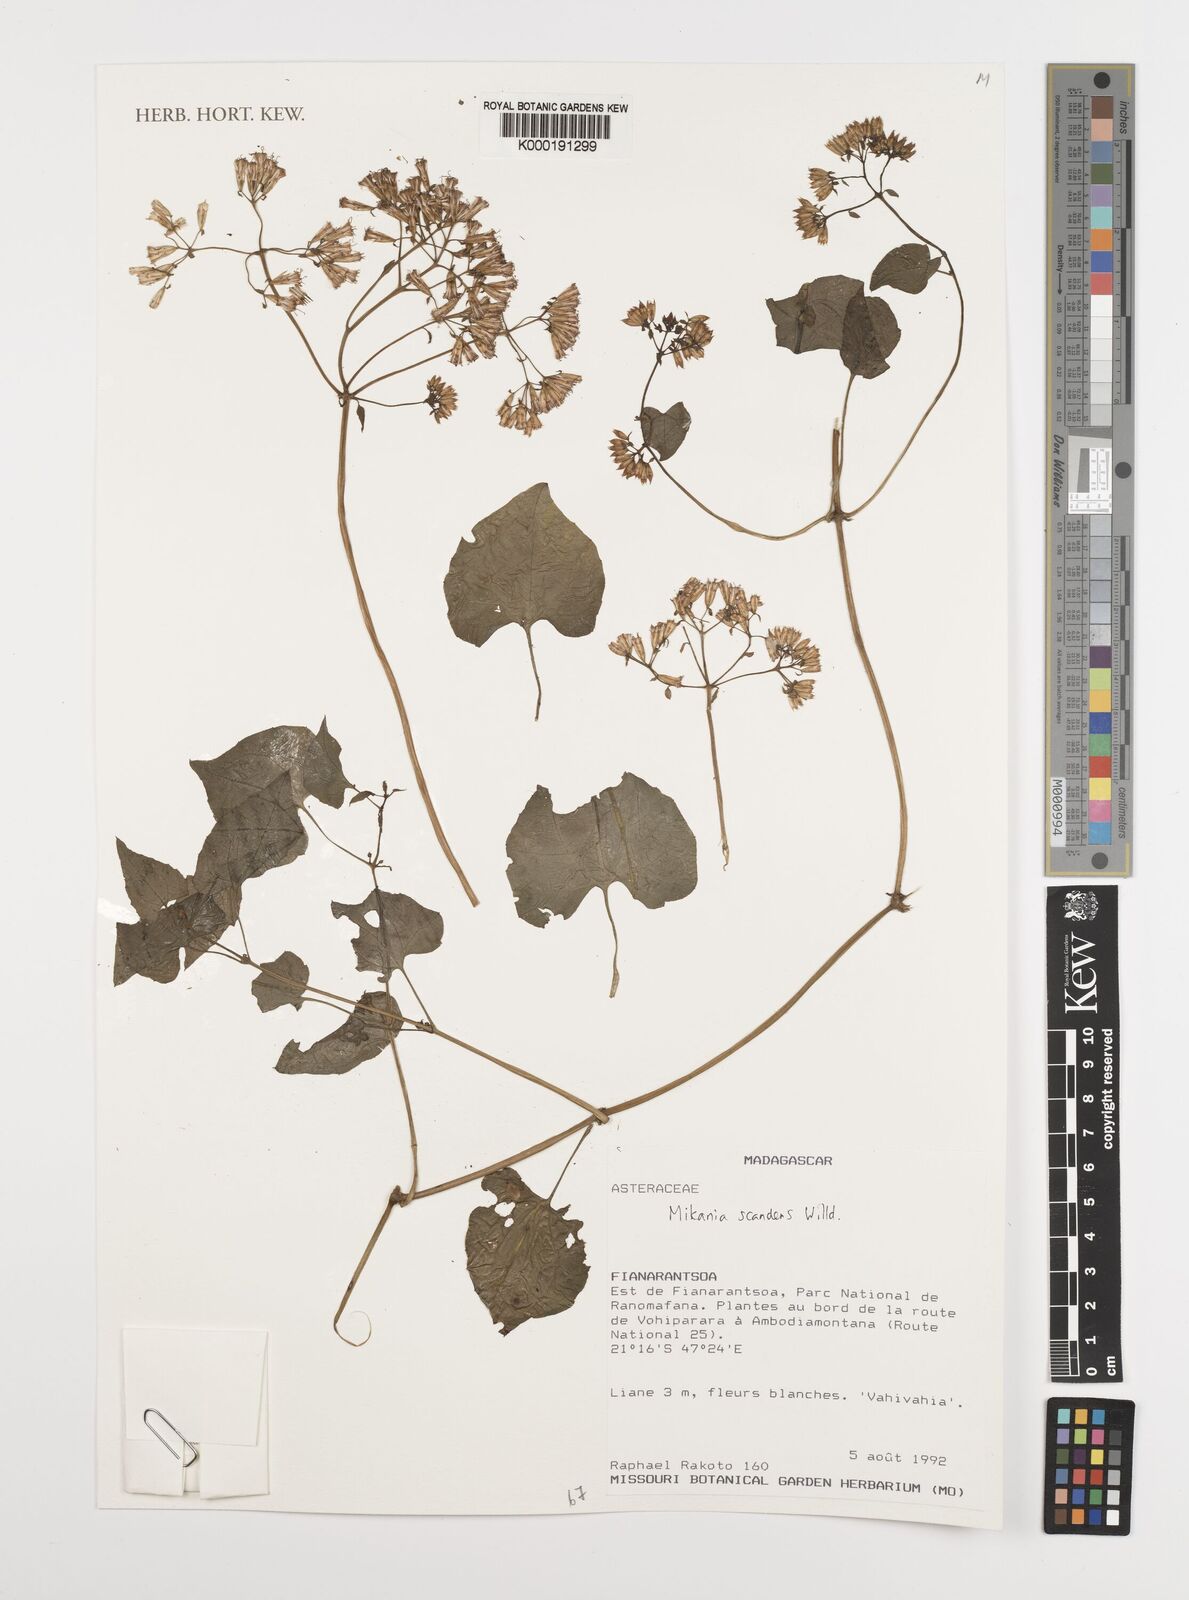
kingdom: Plantae
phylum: Tracheophyta
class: Magnoliopsida
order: Asterales
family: Asteraceae
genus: Mikania
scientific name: Mikania scandens
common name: Climbing hempvine
